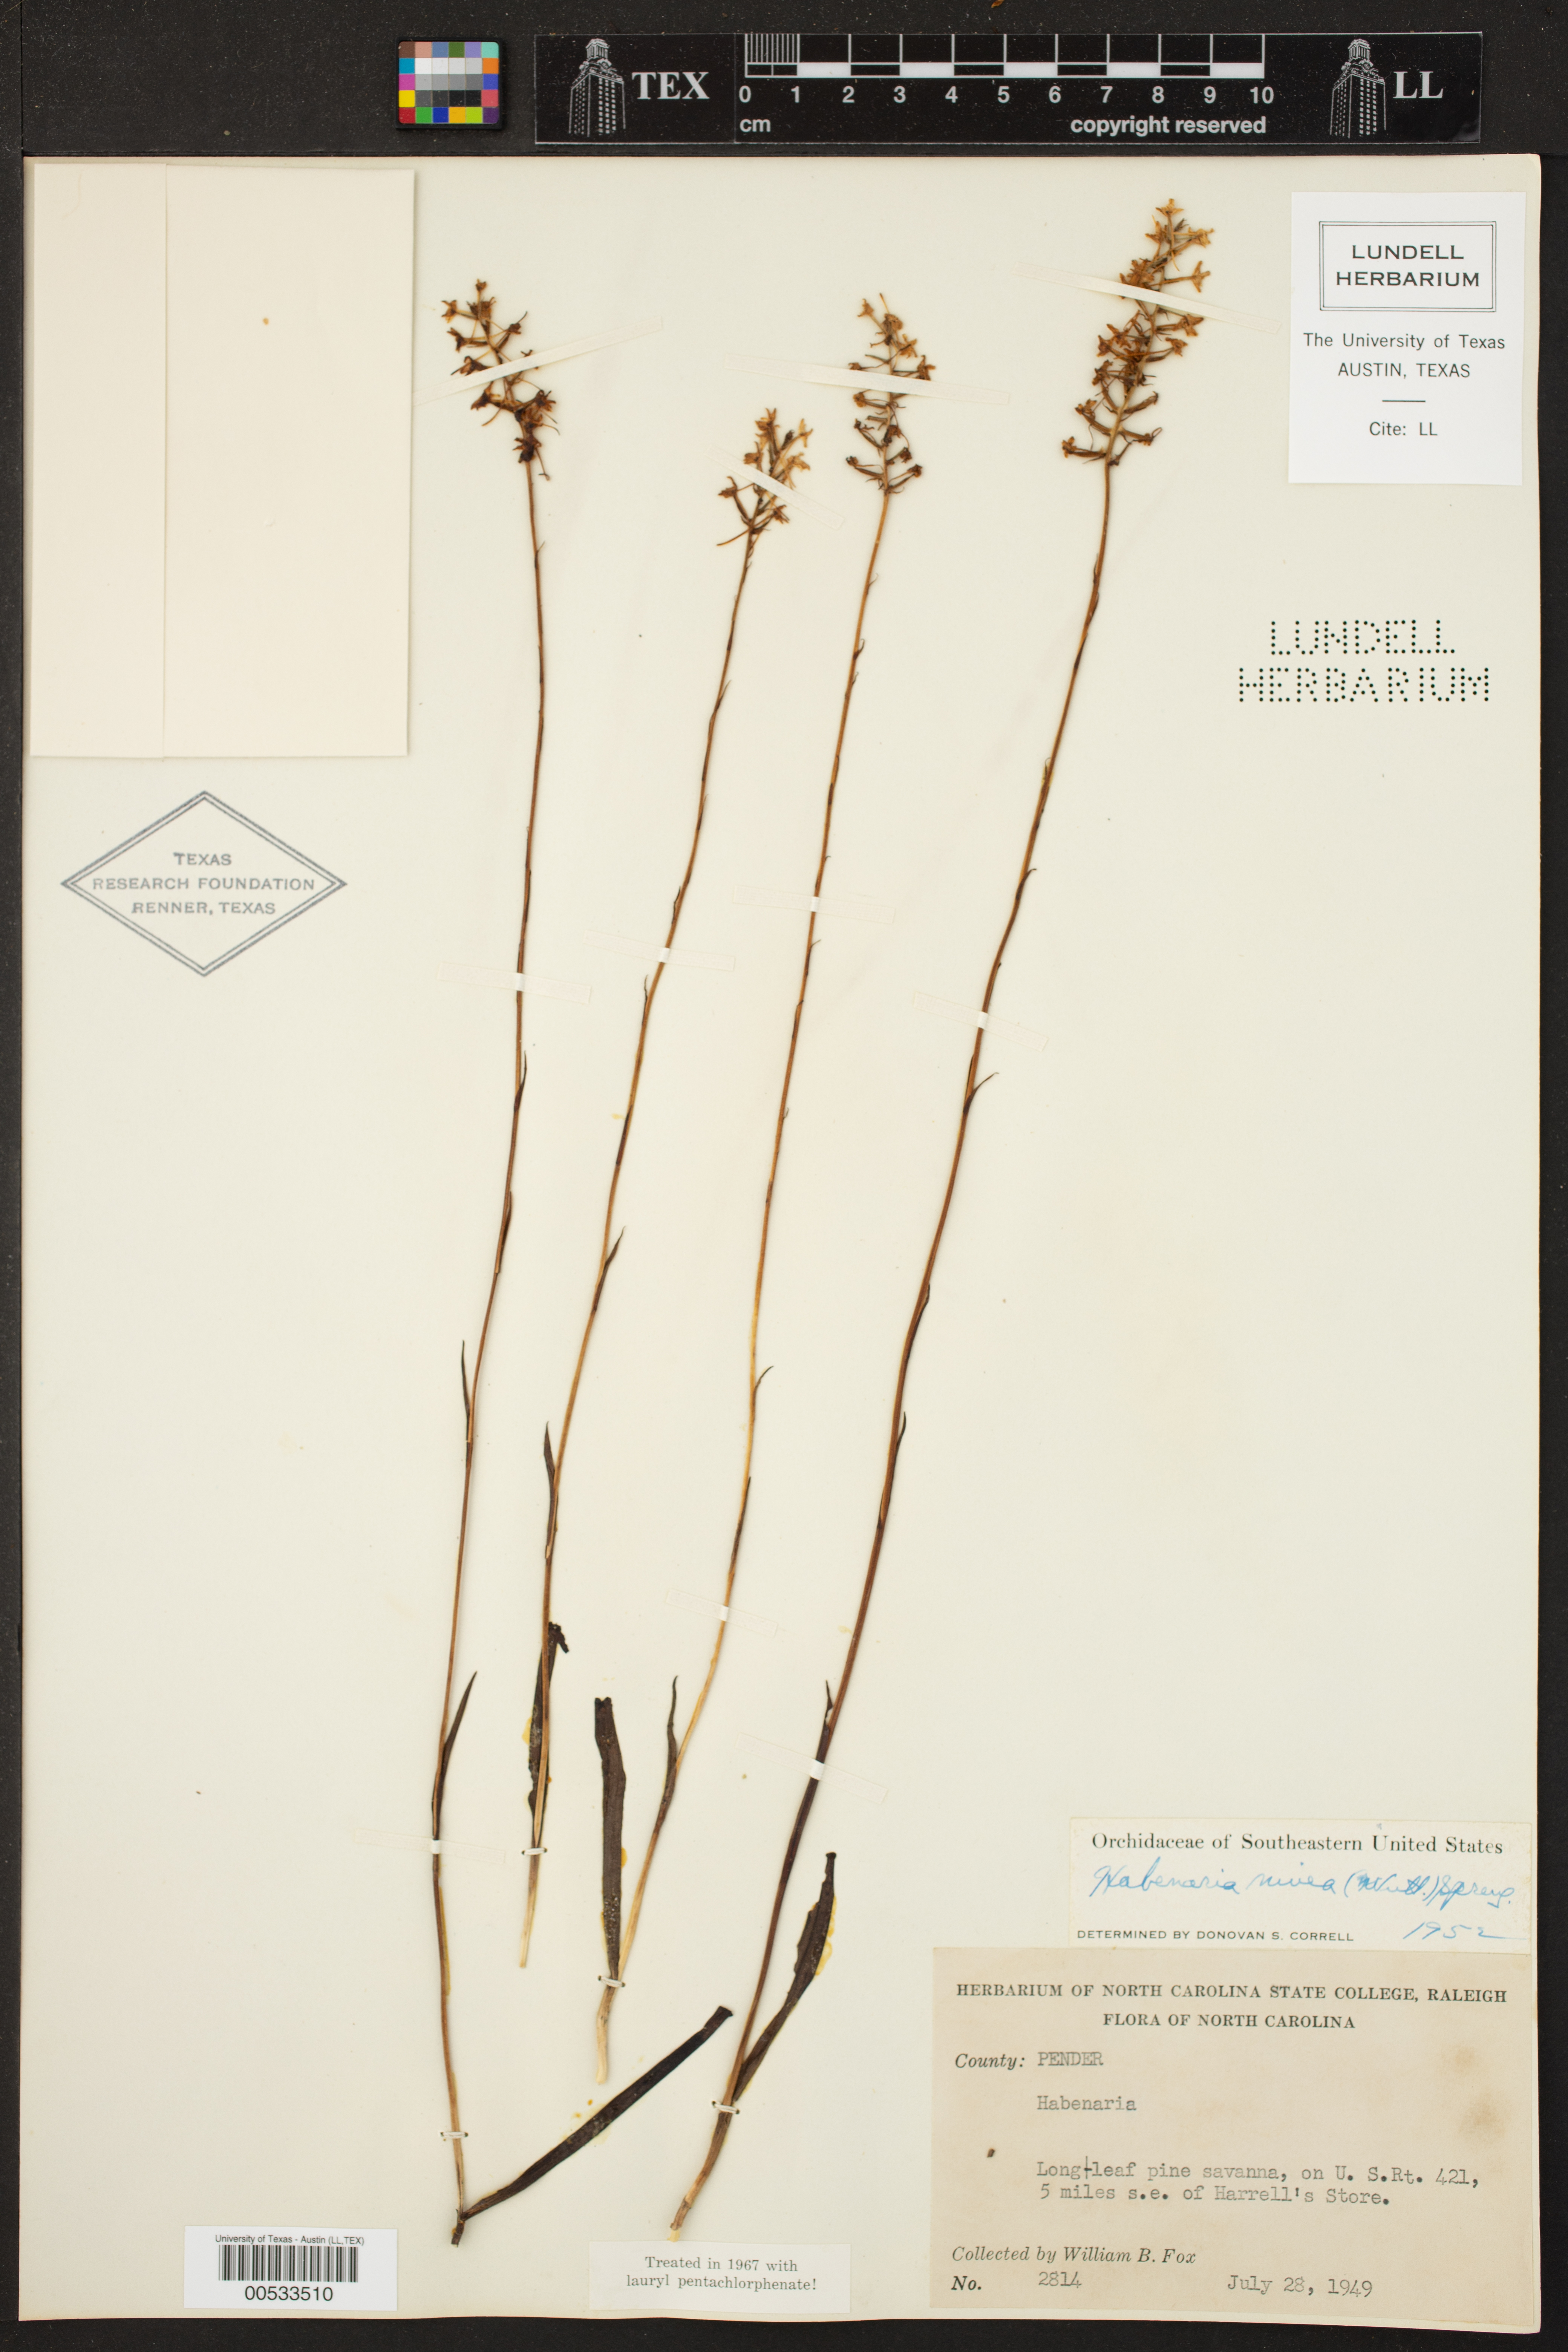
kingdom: Plantae
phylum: Tracheophyta
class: Liliopsida
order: Asparagales
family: Orchidaceae
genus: Platanthera
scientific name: Platanthera nivea
